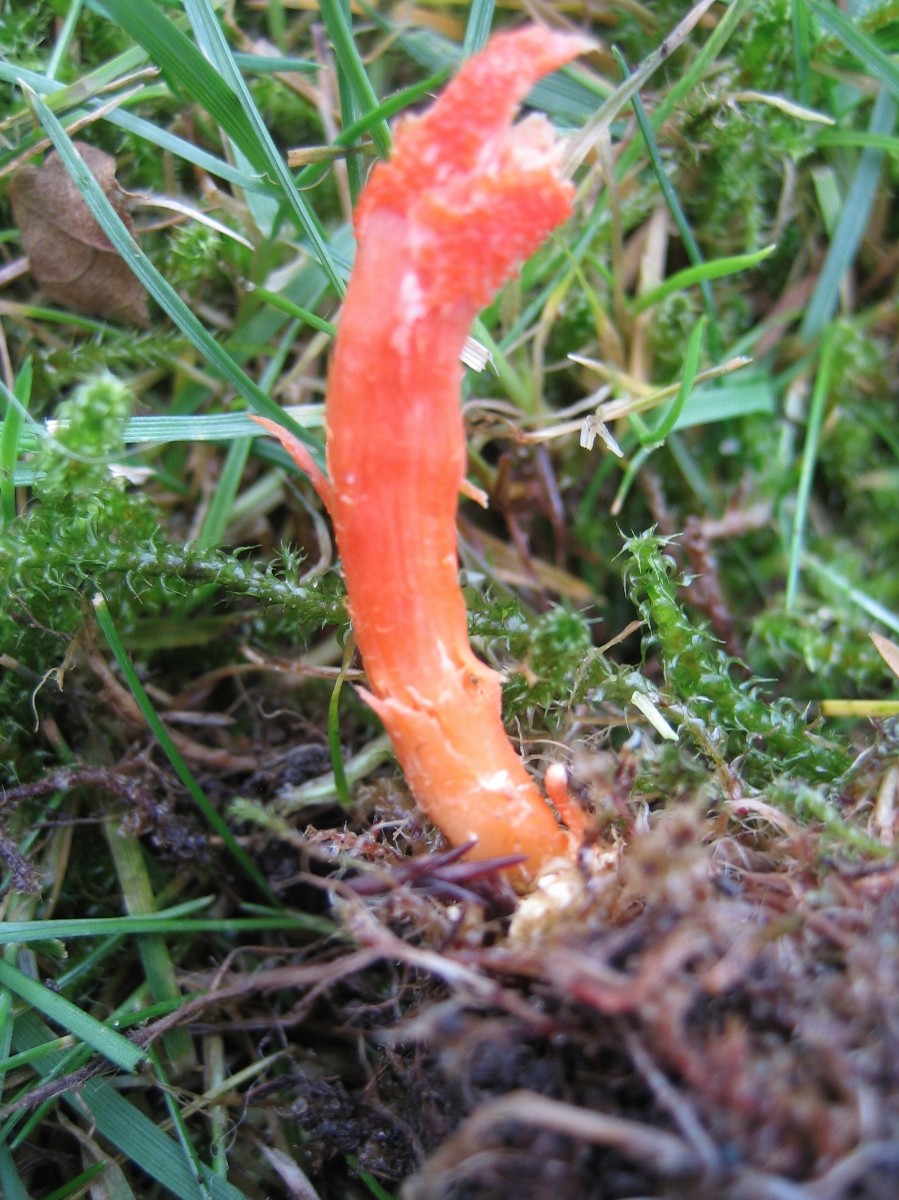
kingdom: Fungi
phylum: Ascomycota
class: Sordariomycetes
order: Hypocreales
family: Cordycipitaceae
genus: Cordyceps
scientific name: Cordyceps militaris
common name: puppe-snyltekølle
